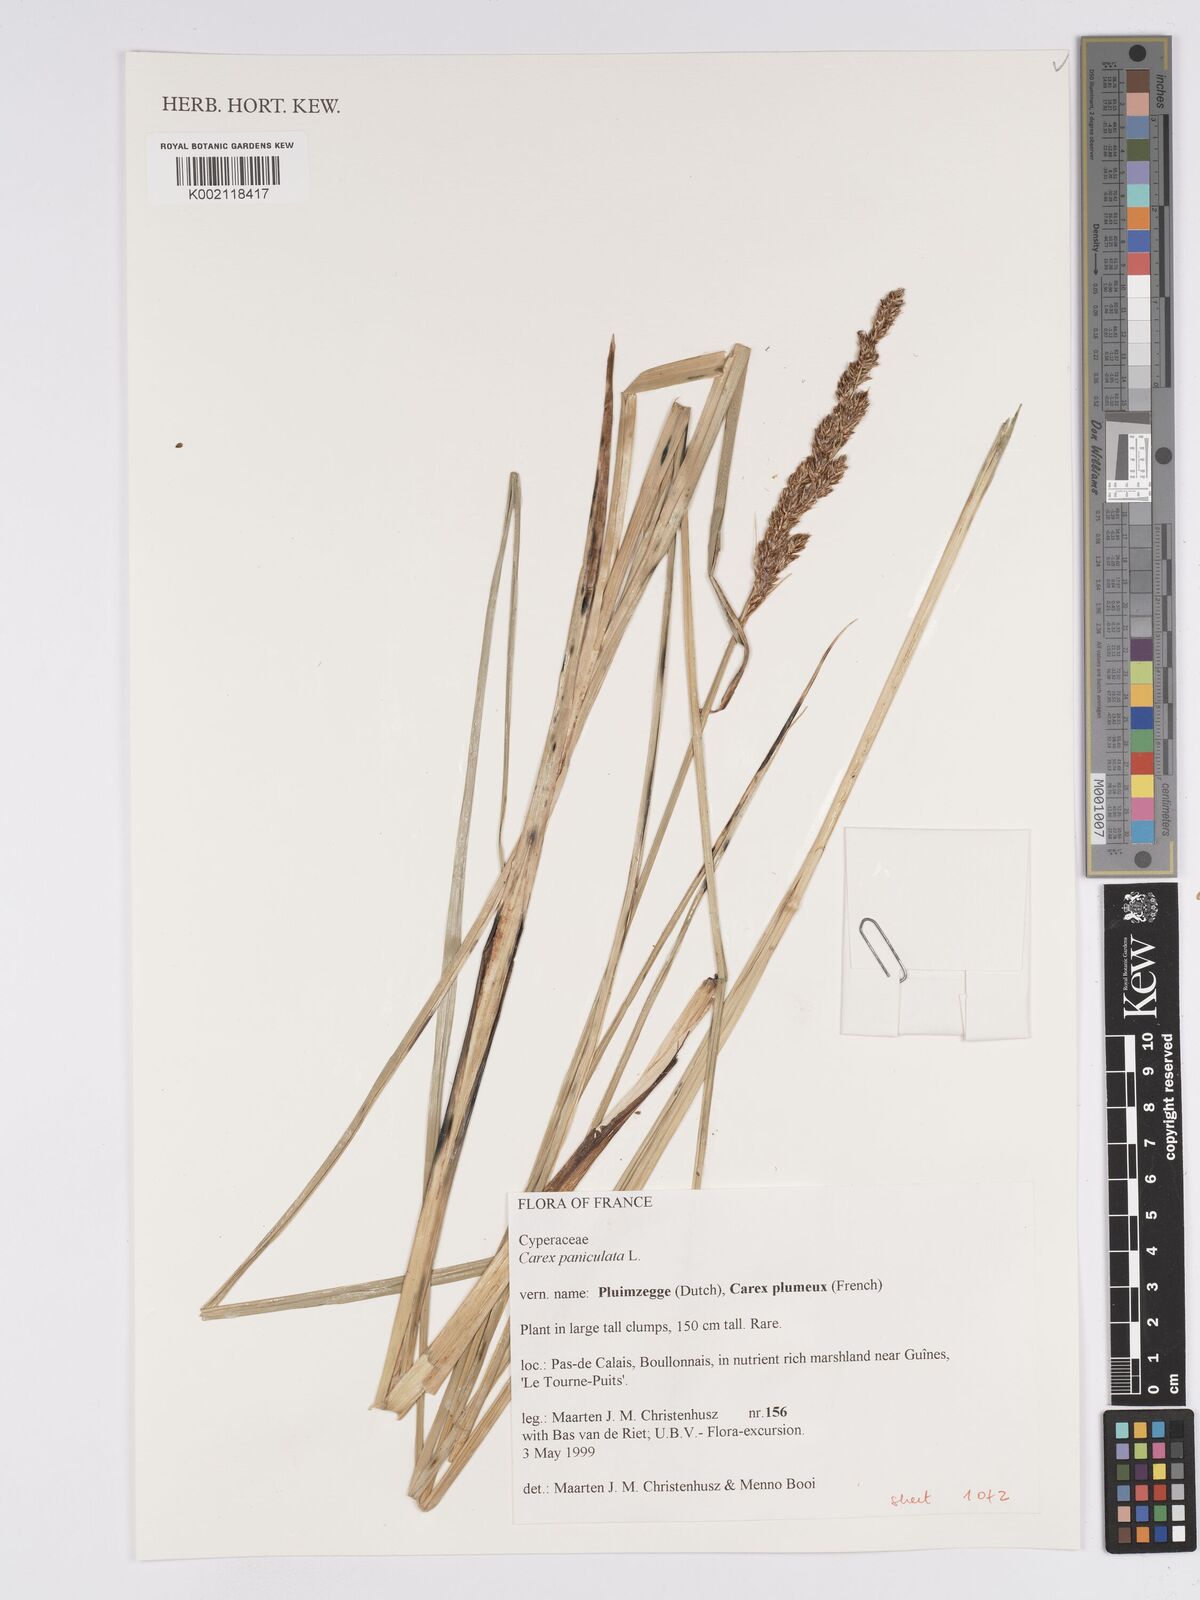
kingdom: Plantae
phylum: Tracheophyta
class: Liliopsida
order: Poales
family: Cyperaceae
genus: Carex
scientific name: Carex paniculata
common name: Greater tussock-sedge
